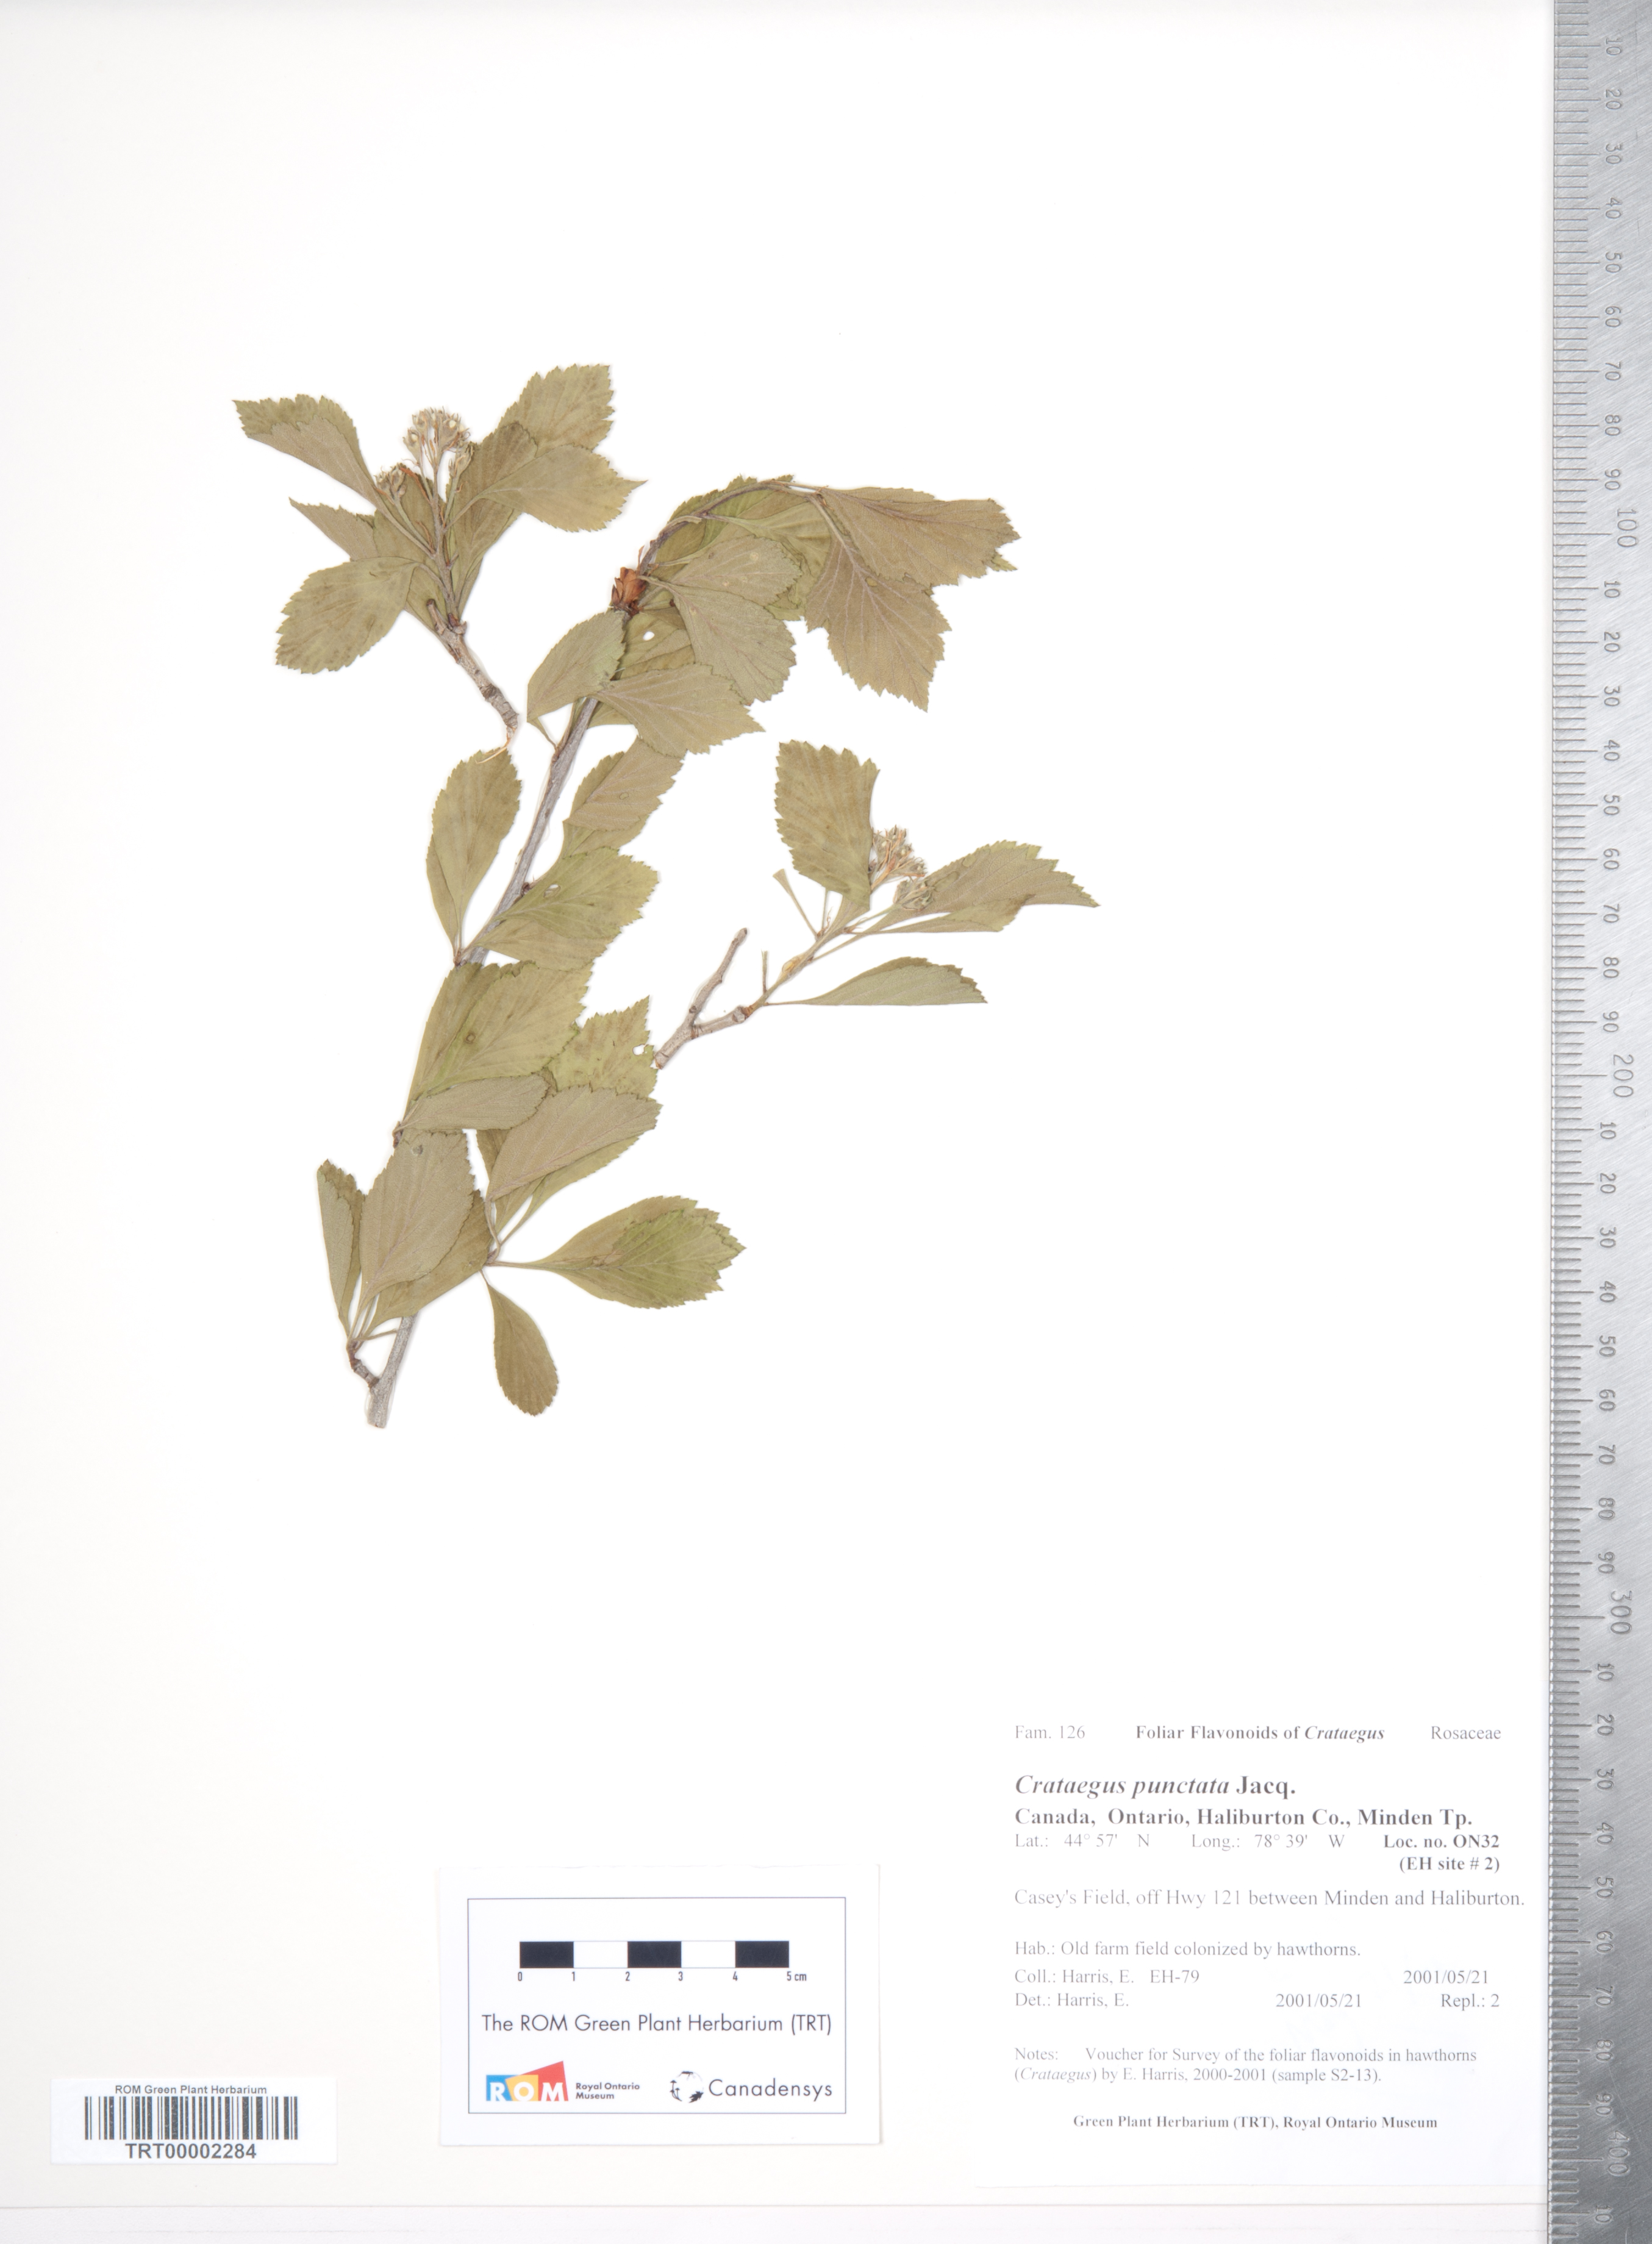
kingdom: Plantae
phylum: Tracheophyta
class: Magnoliopsida
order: Rosales
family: Rosaceae
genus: Crataegus
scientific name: Crataegus punctata
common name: Dotted hawthorn
